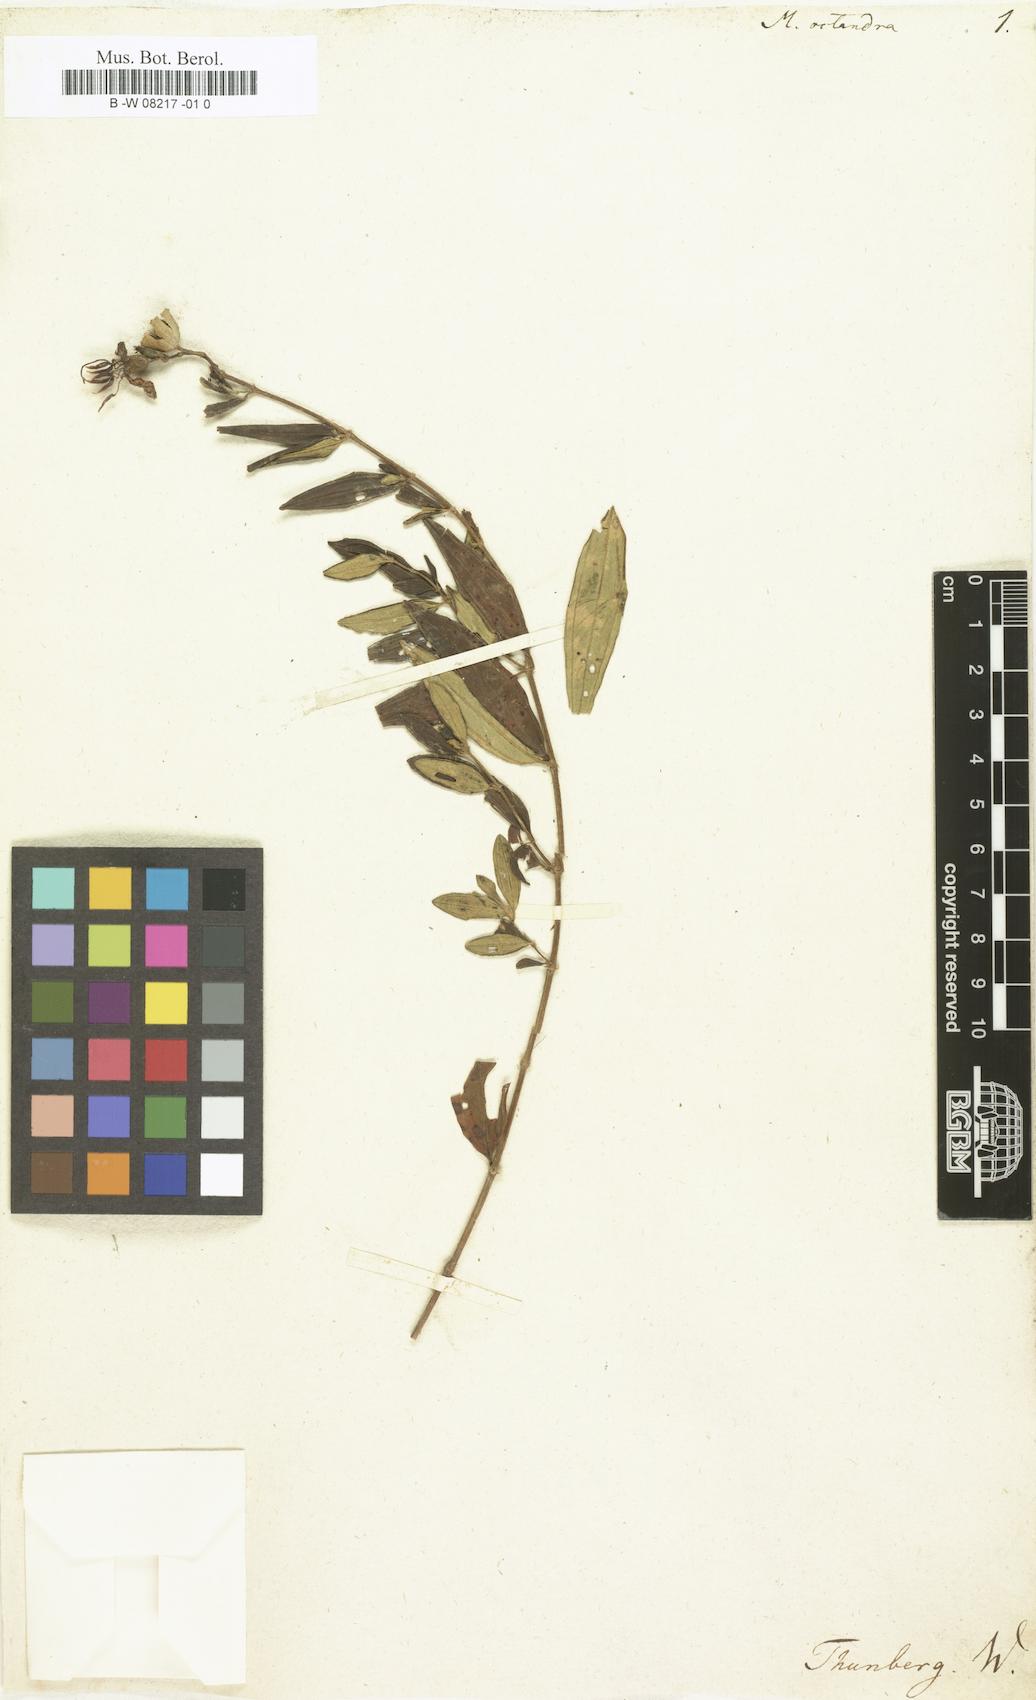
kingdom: Plantae
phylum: Tracheophyta
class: Magnoliopsida
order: Myrtales
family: Melastomataceae
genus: Osbeckia
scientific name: Osbeckia octandra
